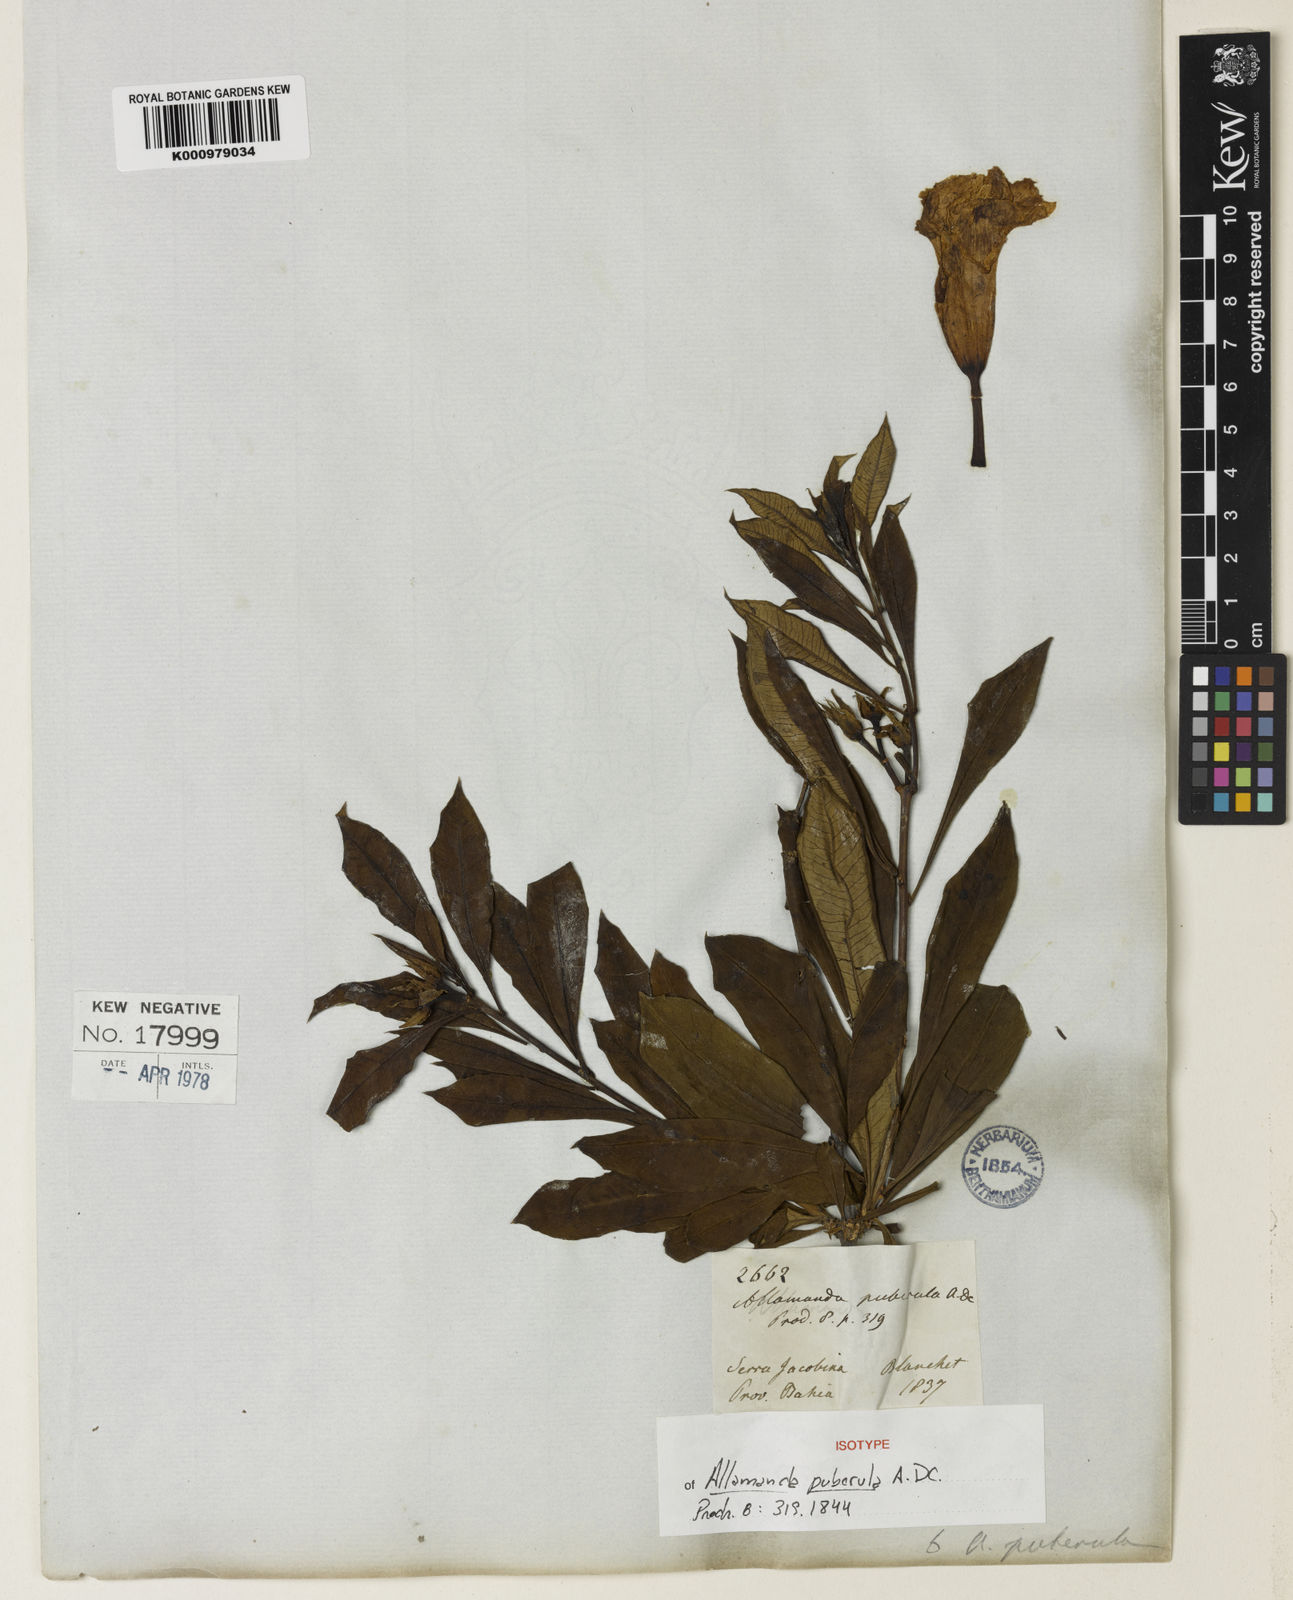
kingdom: Plantae
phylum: Tracheophyta
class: Magnoliopsida
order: Gentianales
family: Apocynaceae
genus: Allamanda
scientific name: Allamanda puberula
